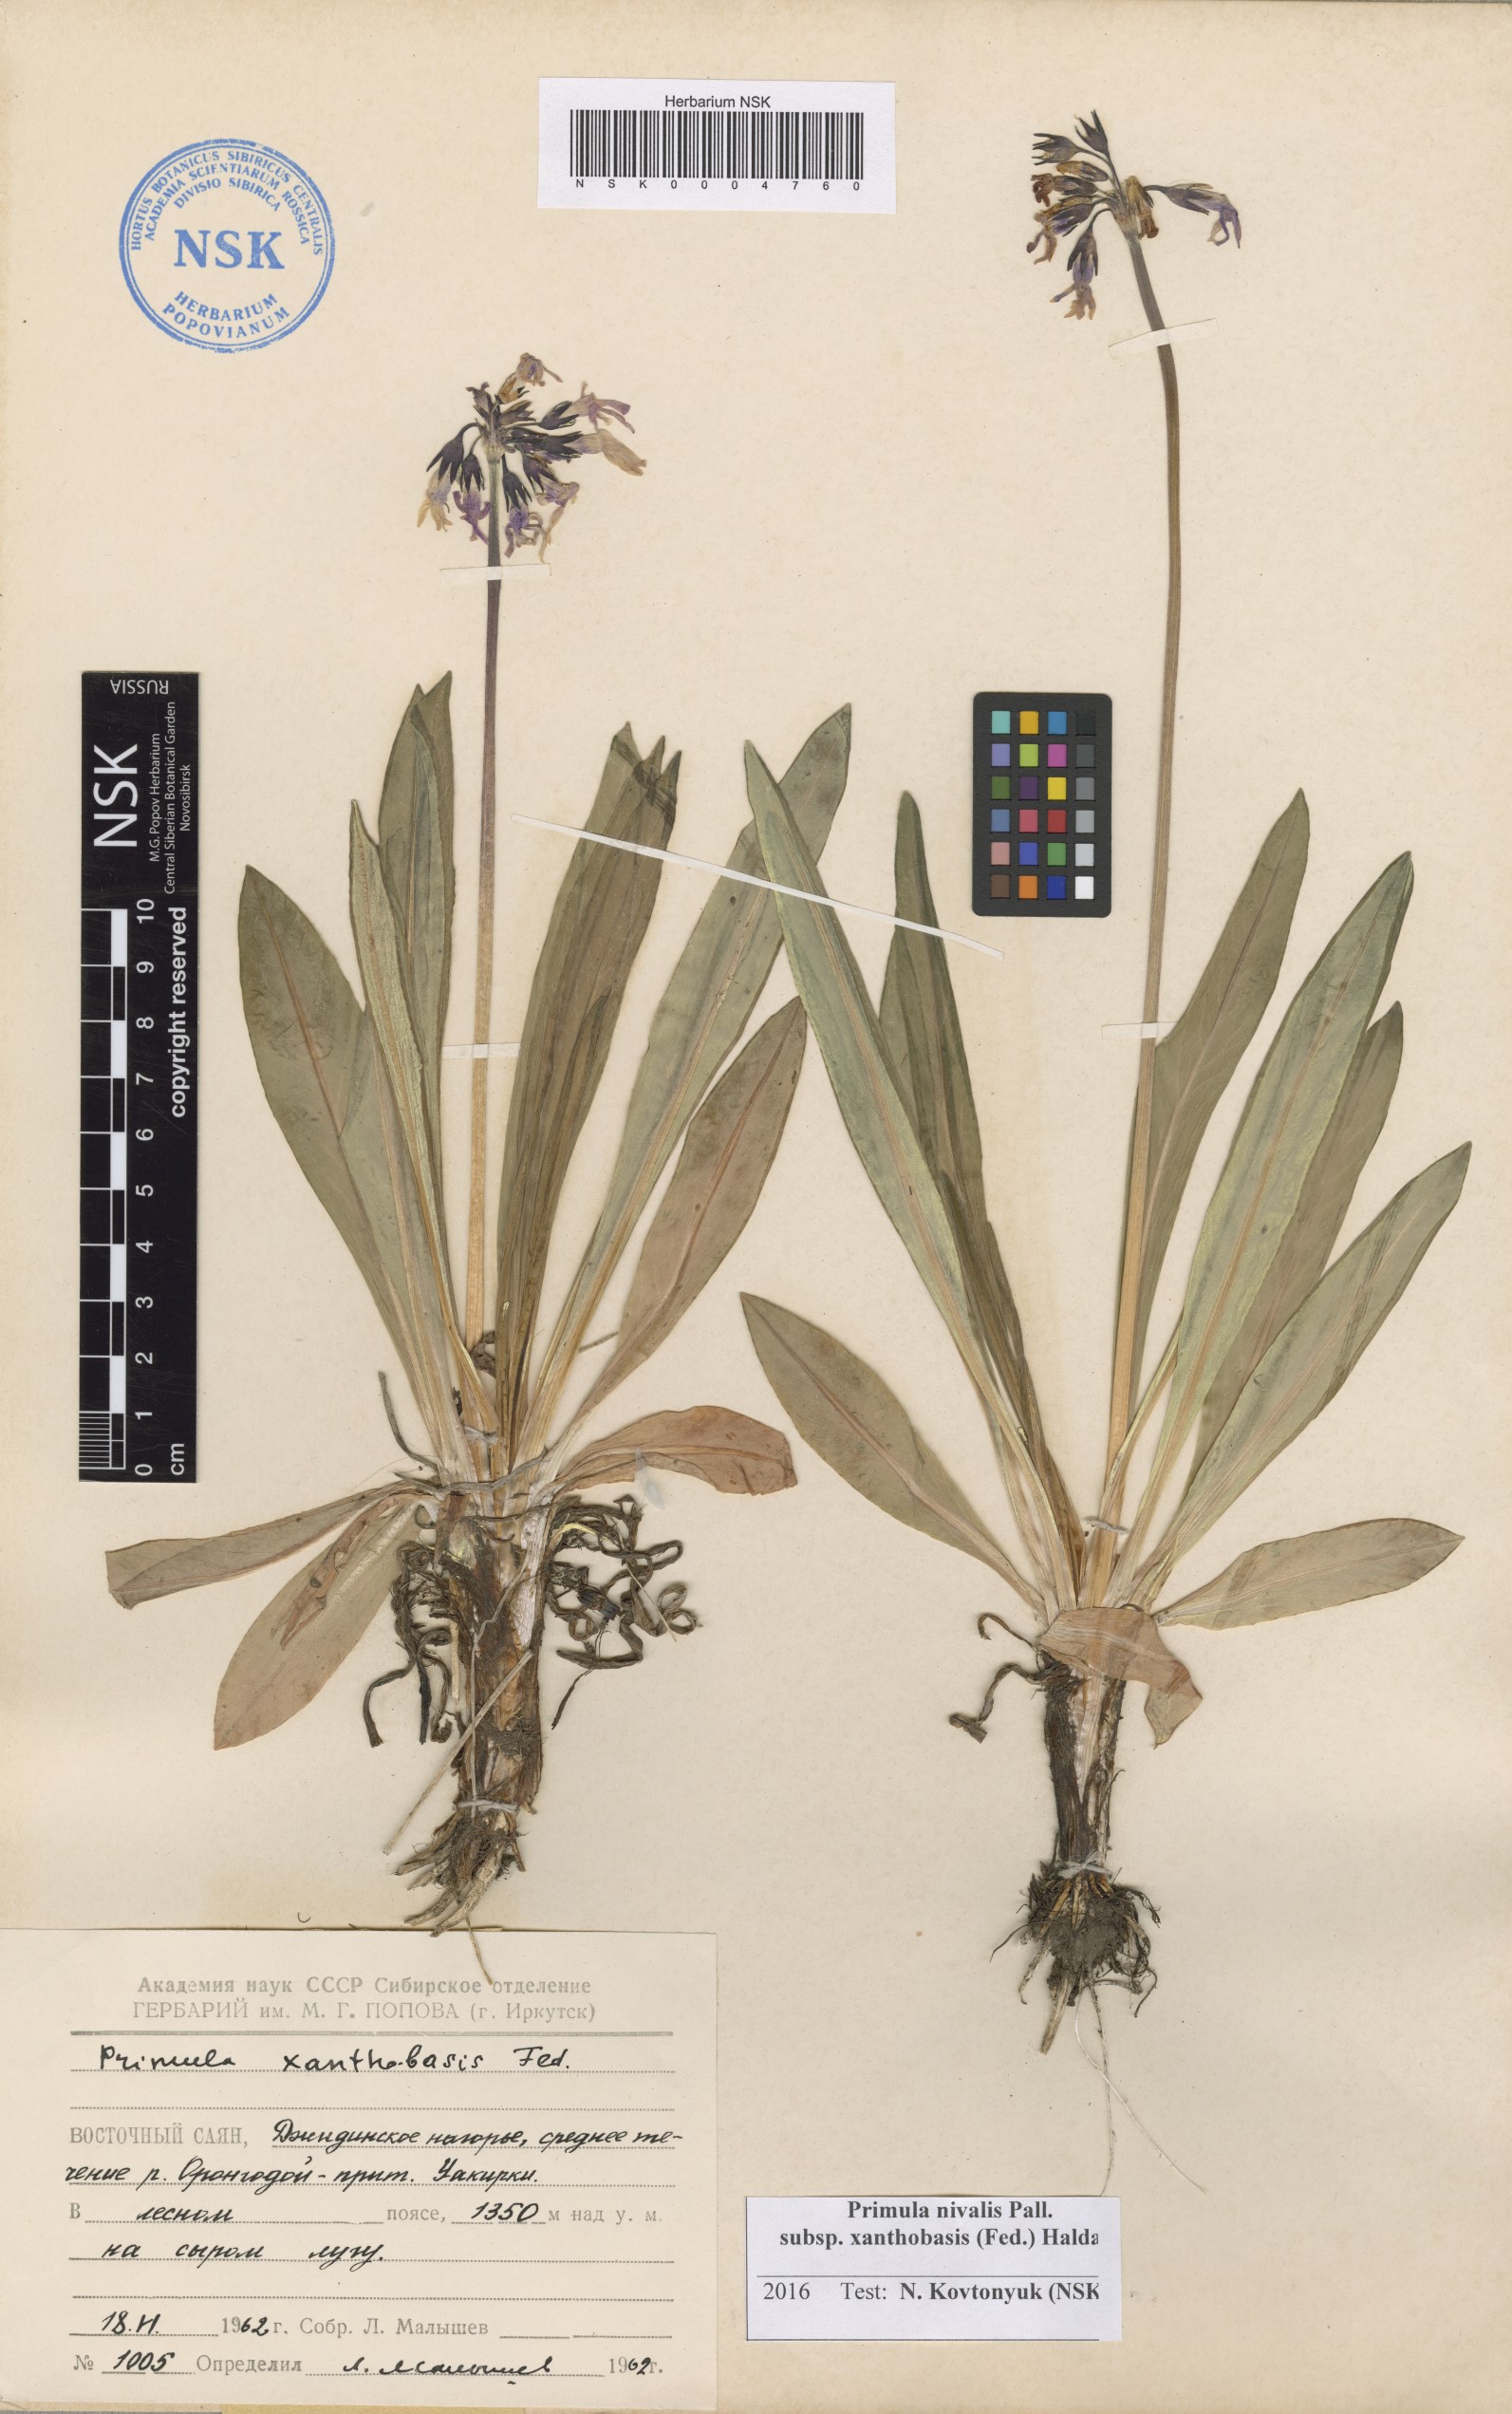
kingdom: Plantae
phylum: Tracheophyta
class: Magnoliopsida
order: Ericales
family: Primulaceae
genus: Primula
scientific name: Primula nivalis
